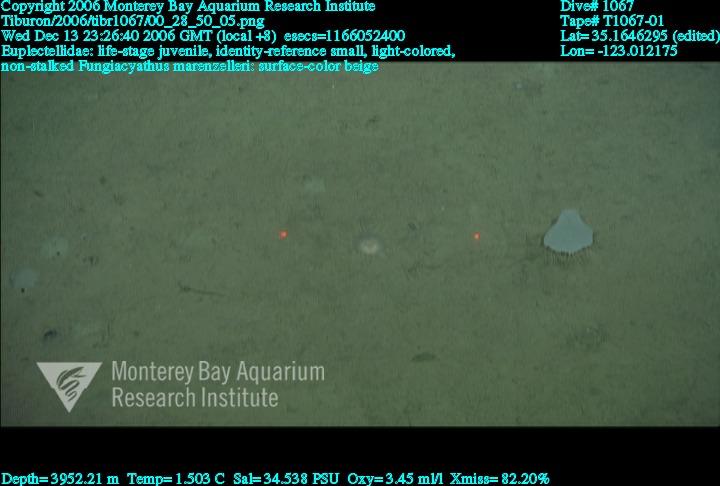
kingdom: Animalia
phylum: Porifera
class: Hexactinellida
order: Lyssacinosida
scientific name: Lyssacinosida
